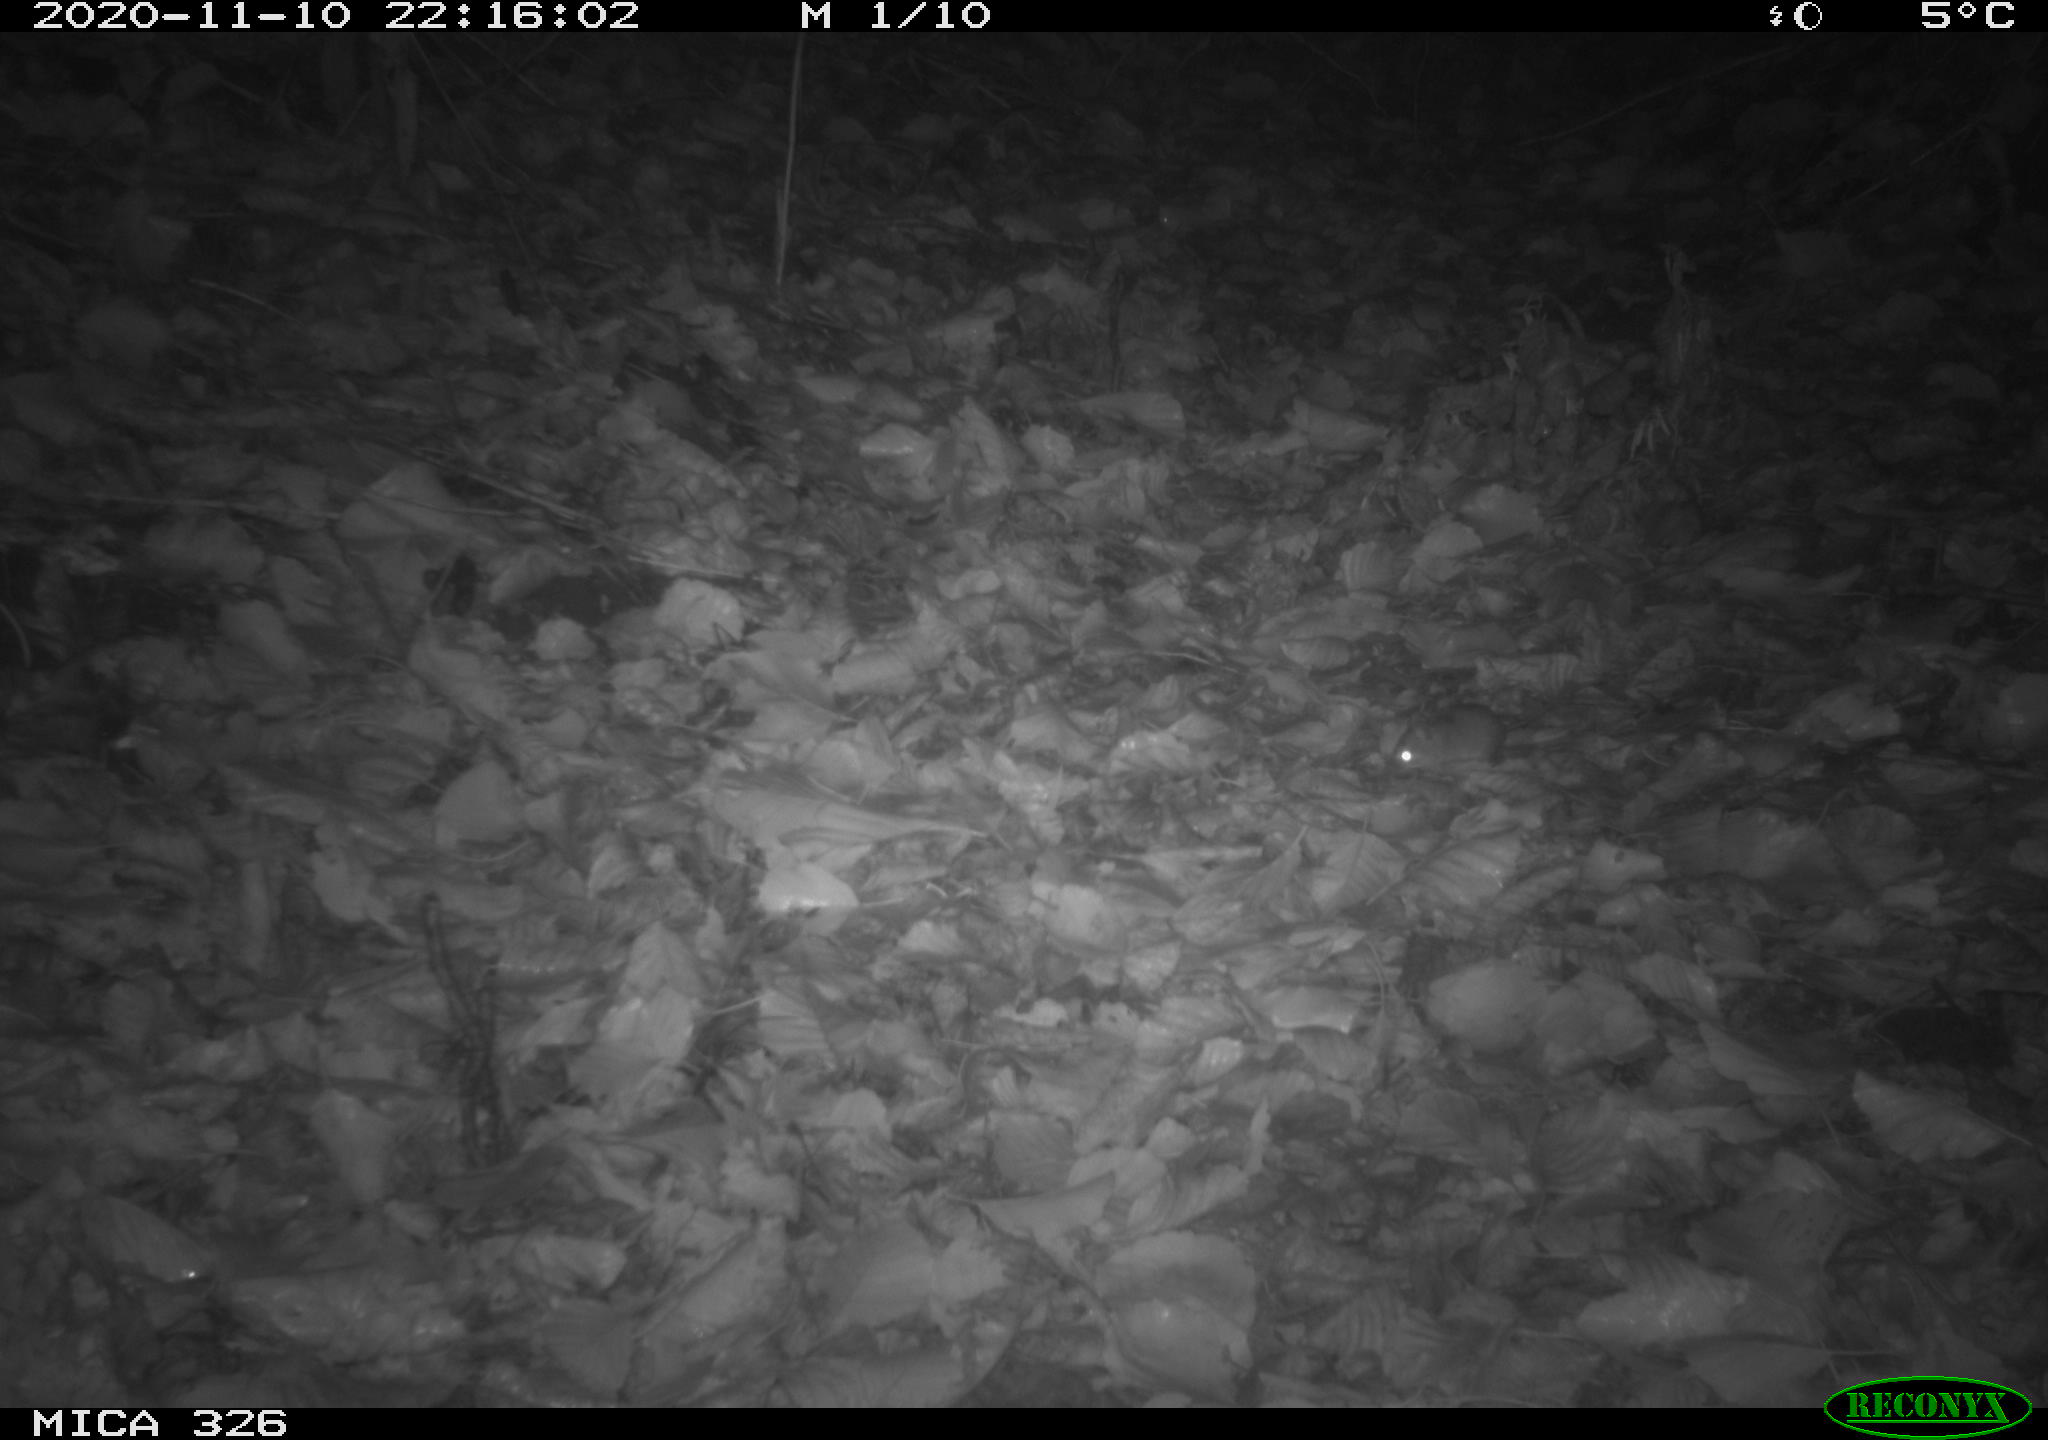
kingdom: Animalia
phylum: Chordata
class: Mammalia
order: Rodentia
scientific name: Rodentia
